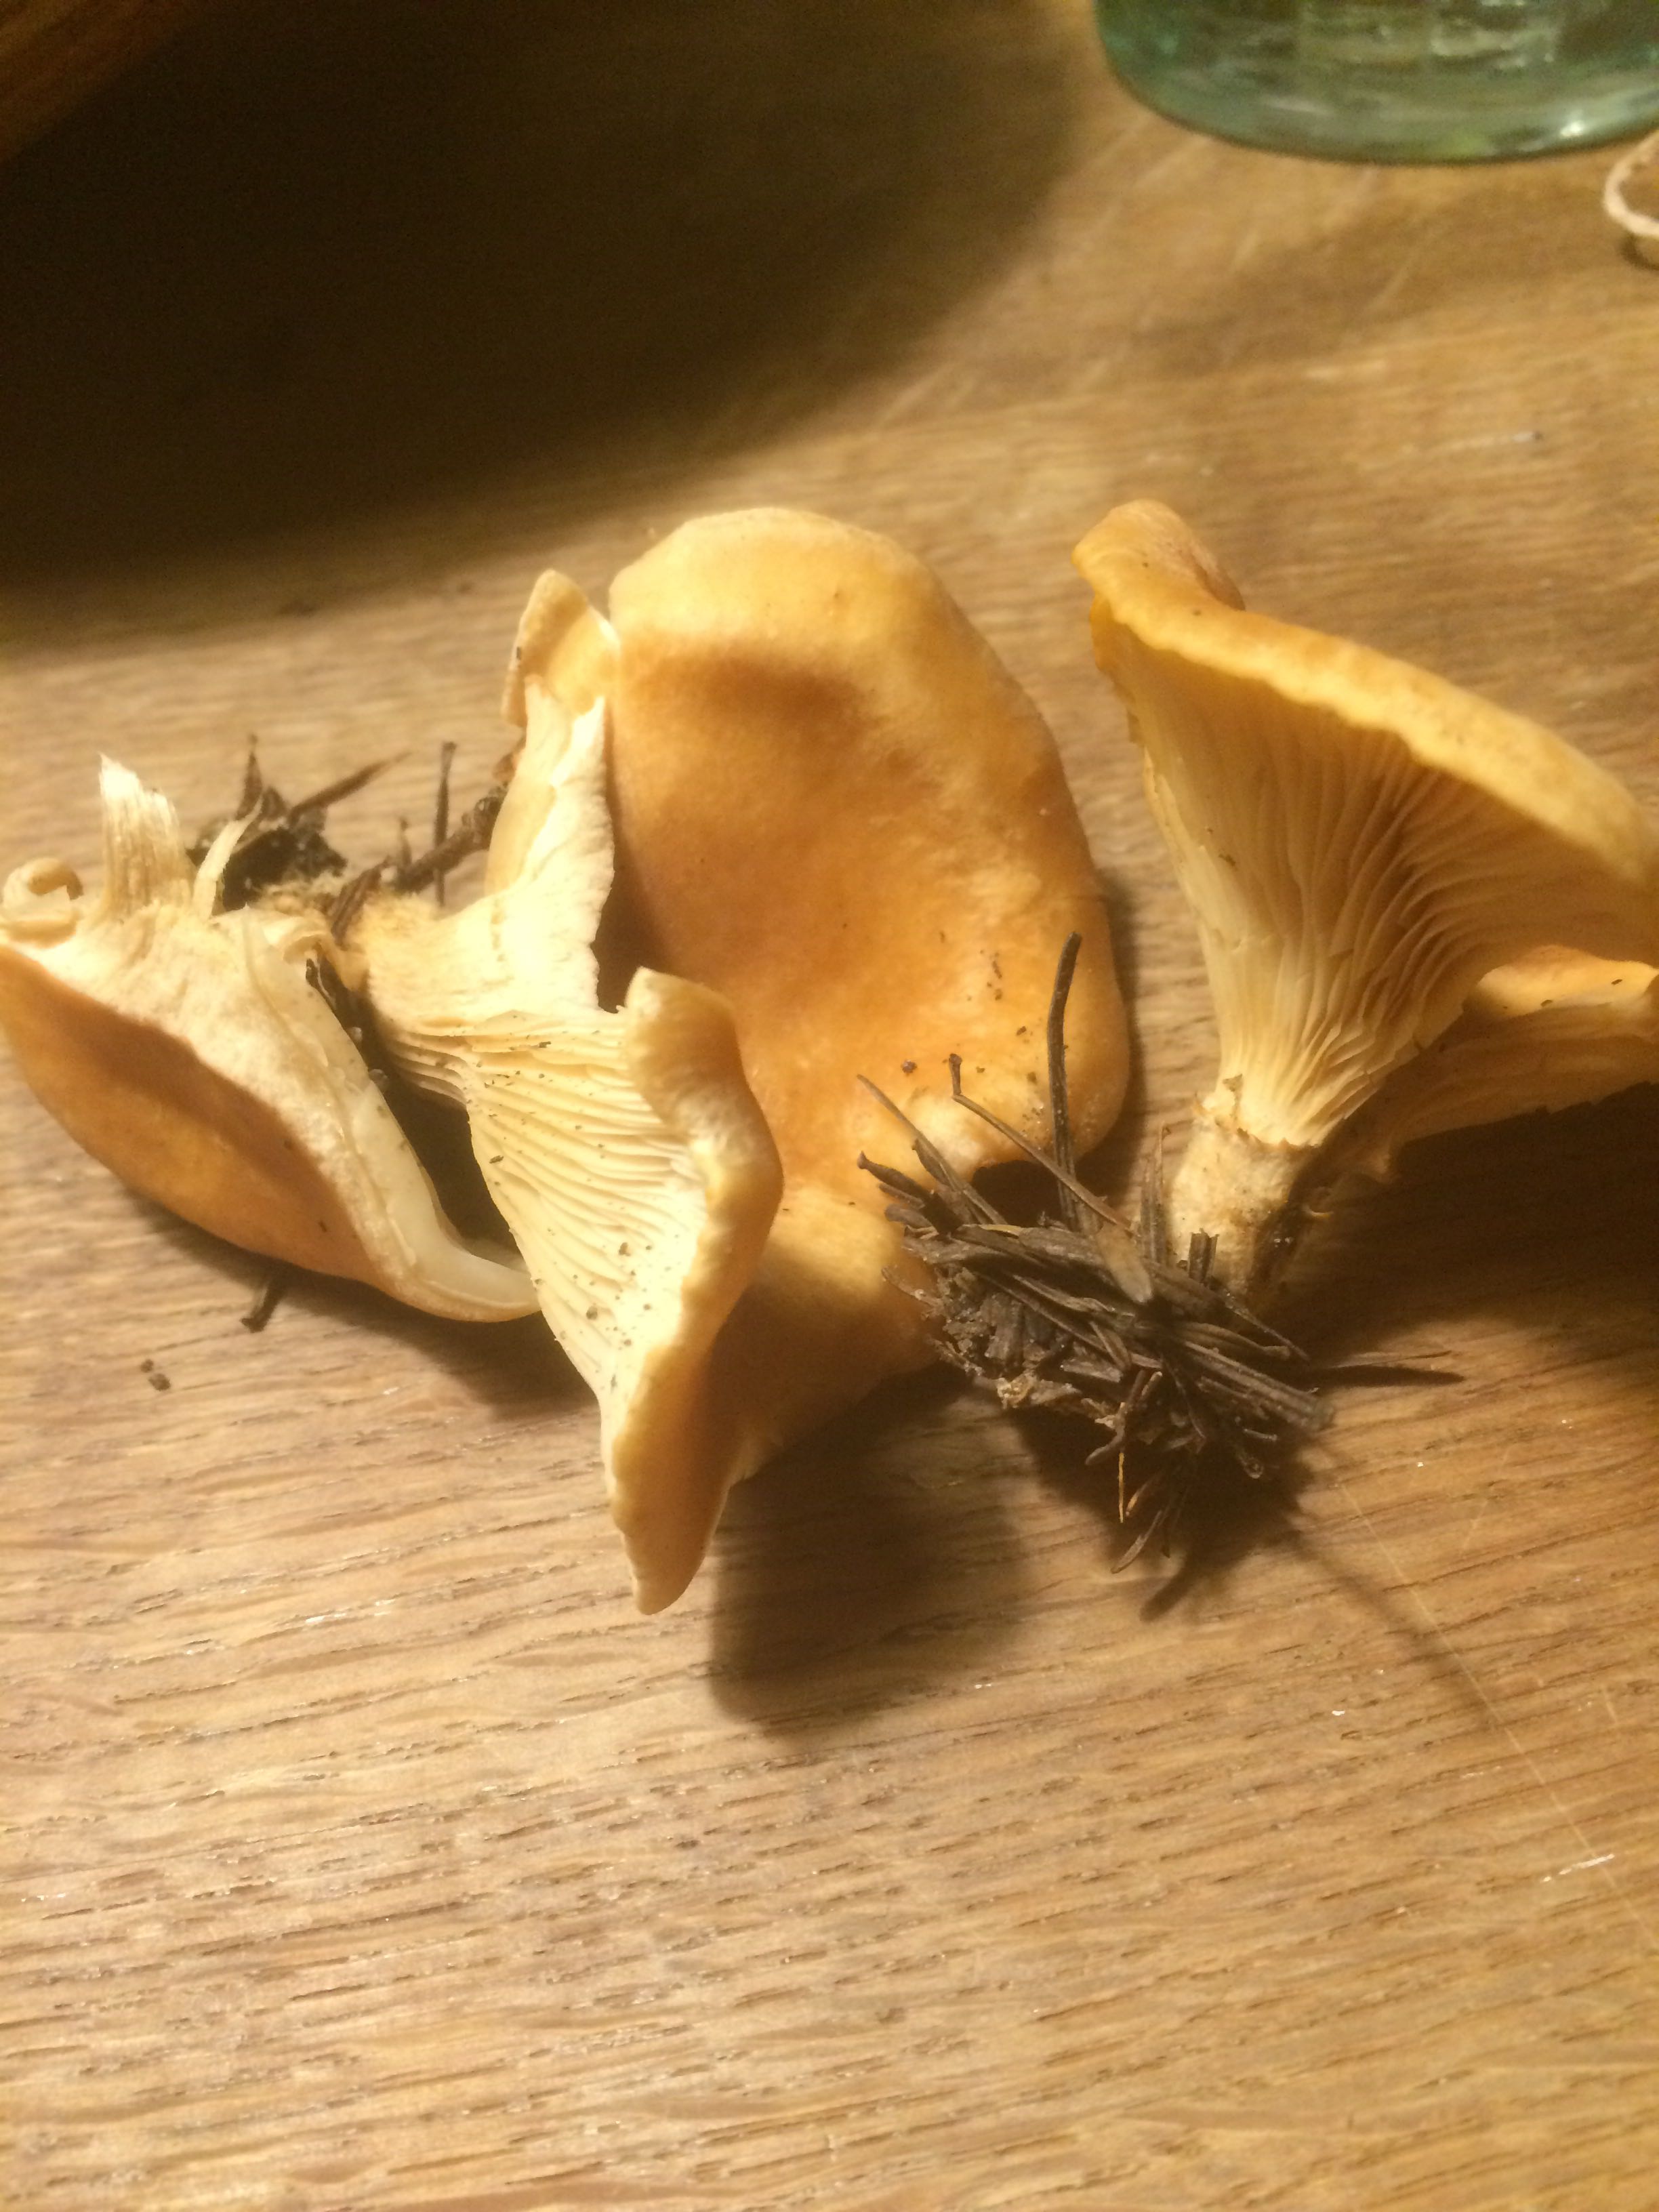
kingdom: Fungi
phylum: Basidiomycota
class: Agaricomycetes
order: Agaricales
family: Tricholomataceae
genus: Paralepista
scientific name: Paralepista flaccida
